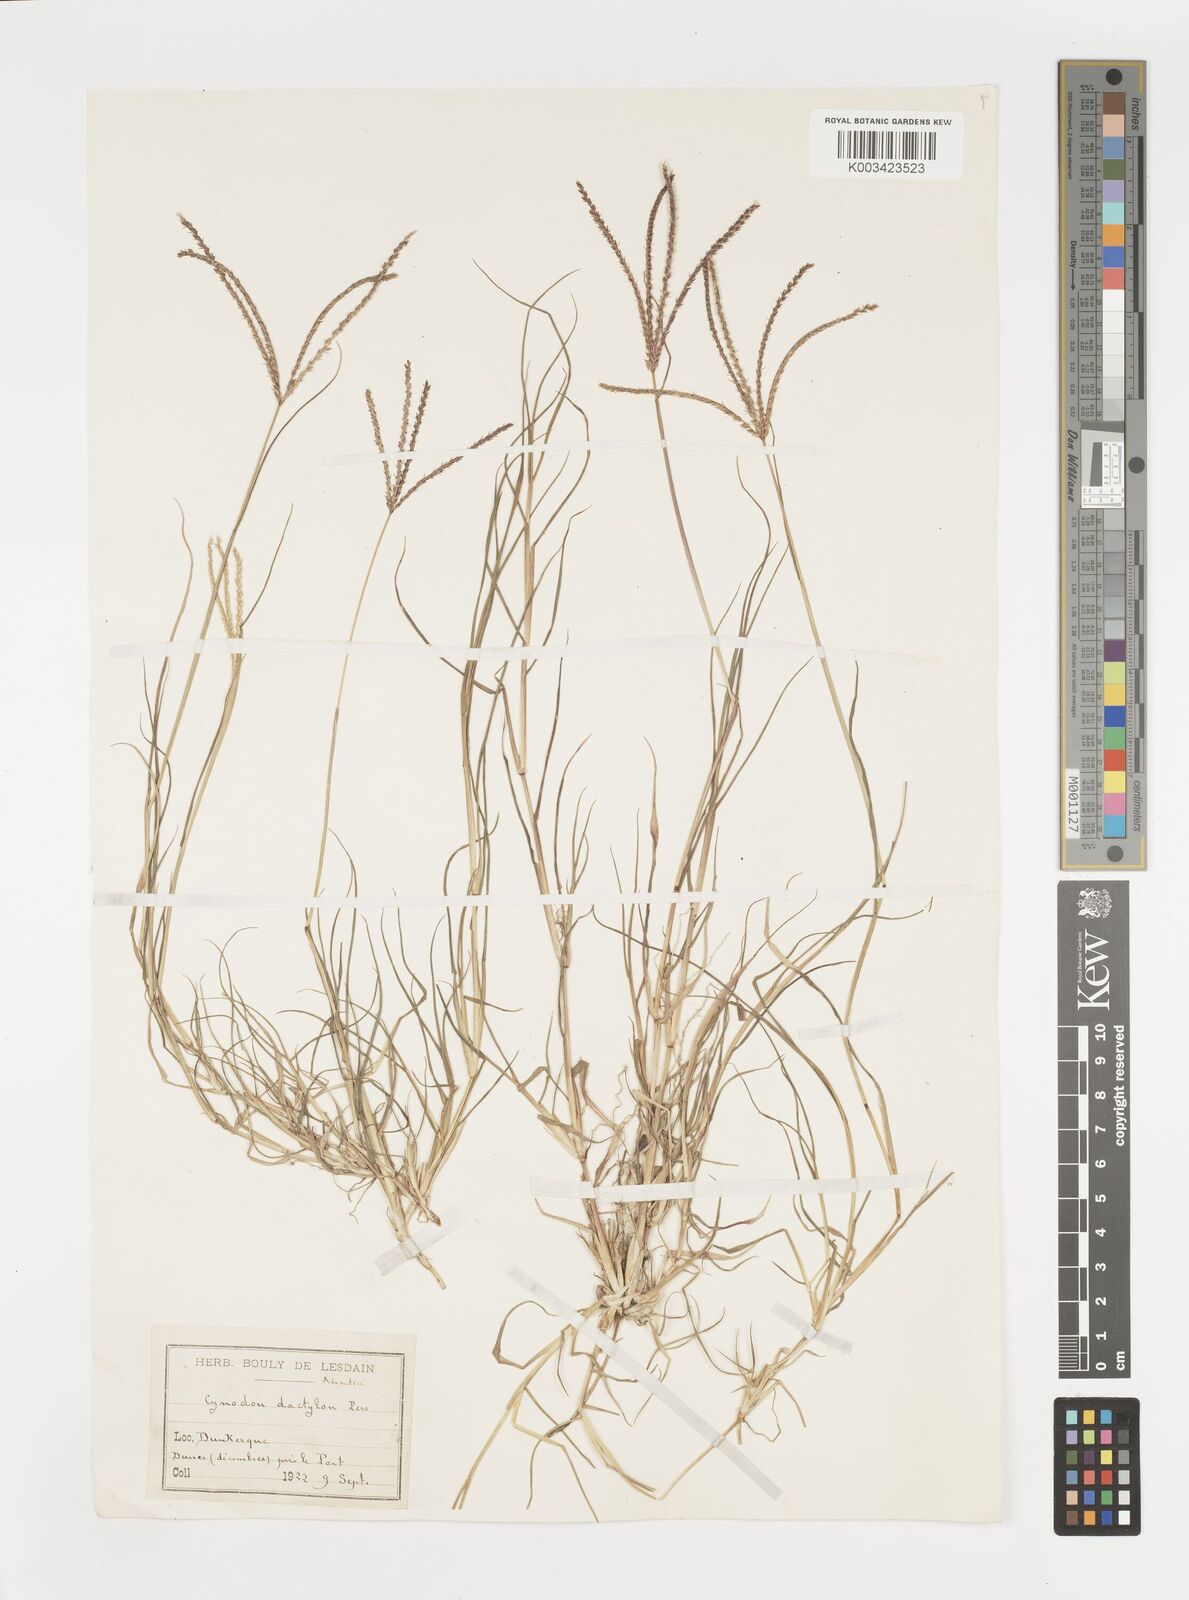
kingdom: Plantae
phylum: Tracheophyta
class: Liliopsida
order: Poales
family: Poaceae
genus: Cynodon
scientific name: Cynodon dactylon
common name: Bermuda grass
